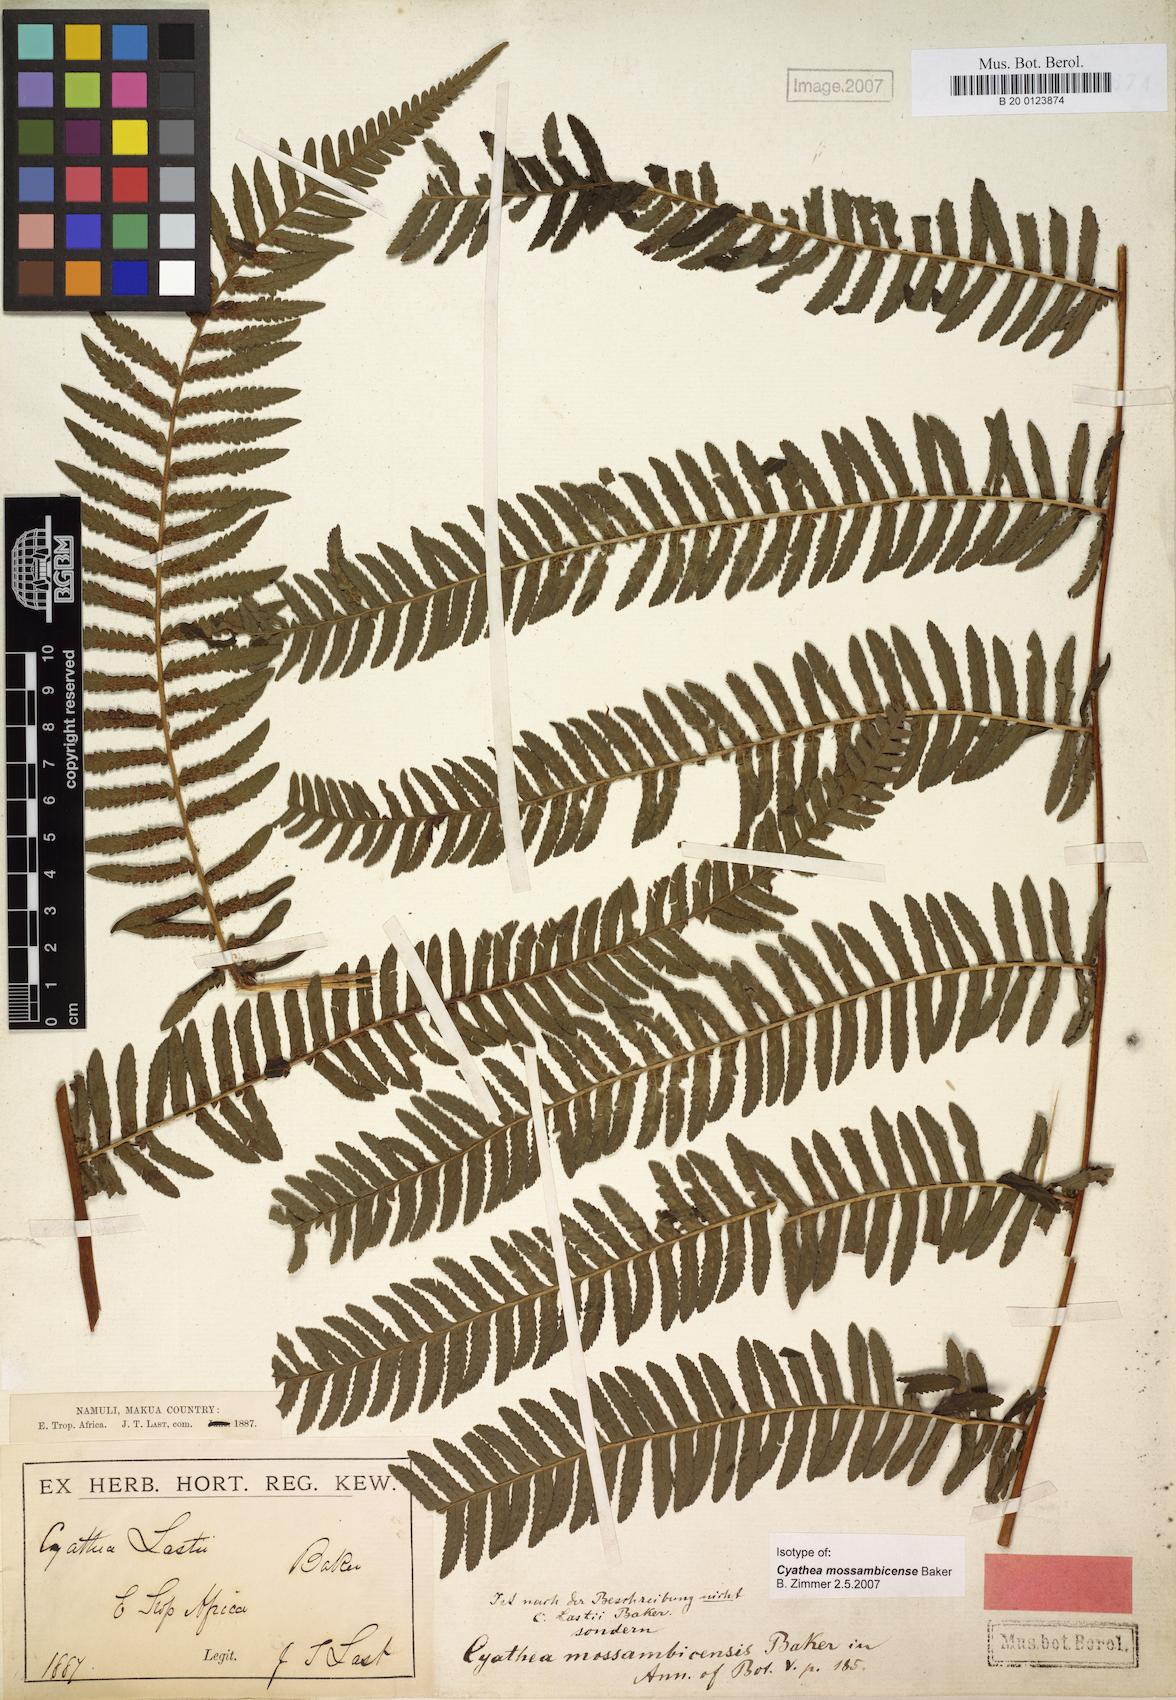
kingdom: Plantae
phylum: Tracheophyta
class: Polypodiopsida
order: Cyatheales
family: Cyatheaceae
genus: Alsophila
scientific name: Alsophila mossambicensis
